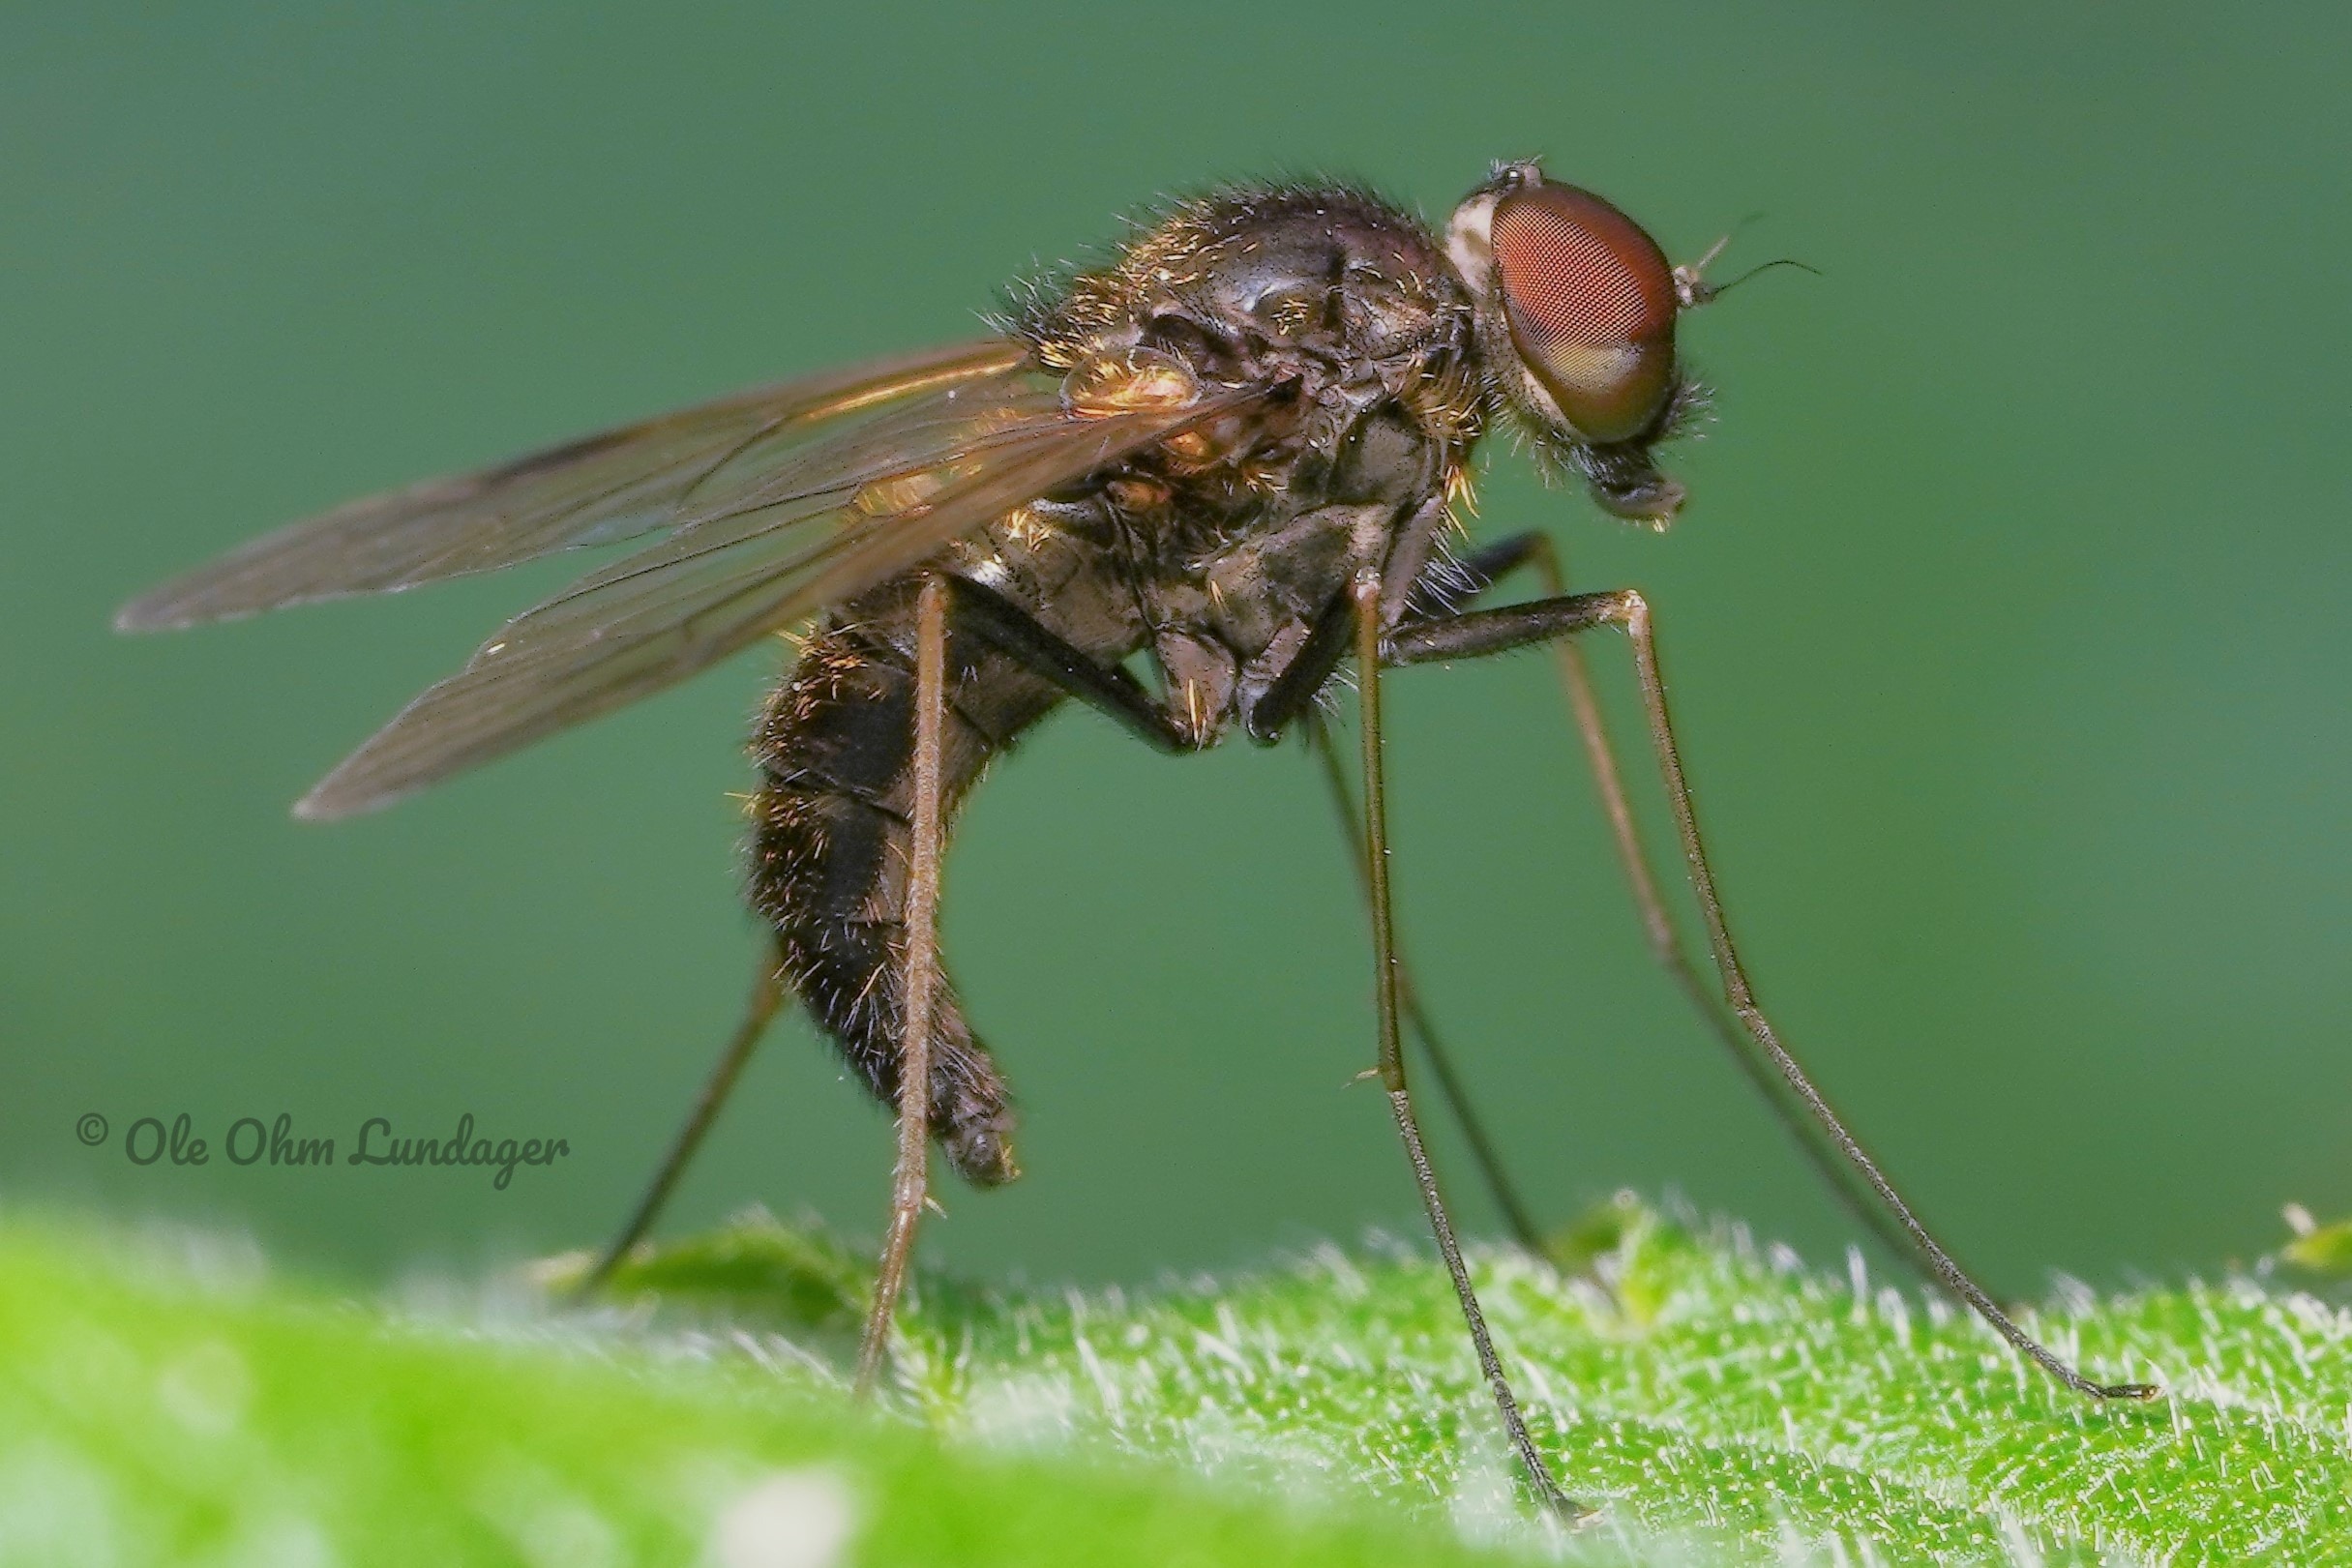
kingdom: Animalia
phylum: Arthropoda
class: Insecta
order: Diptera
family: Rhagionidae
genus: Chrysopilus
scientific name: Chrysopilus cristatus
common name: Gulhåret sneppeflue
